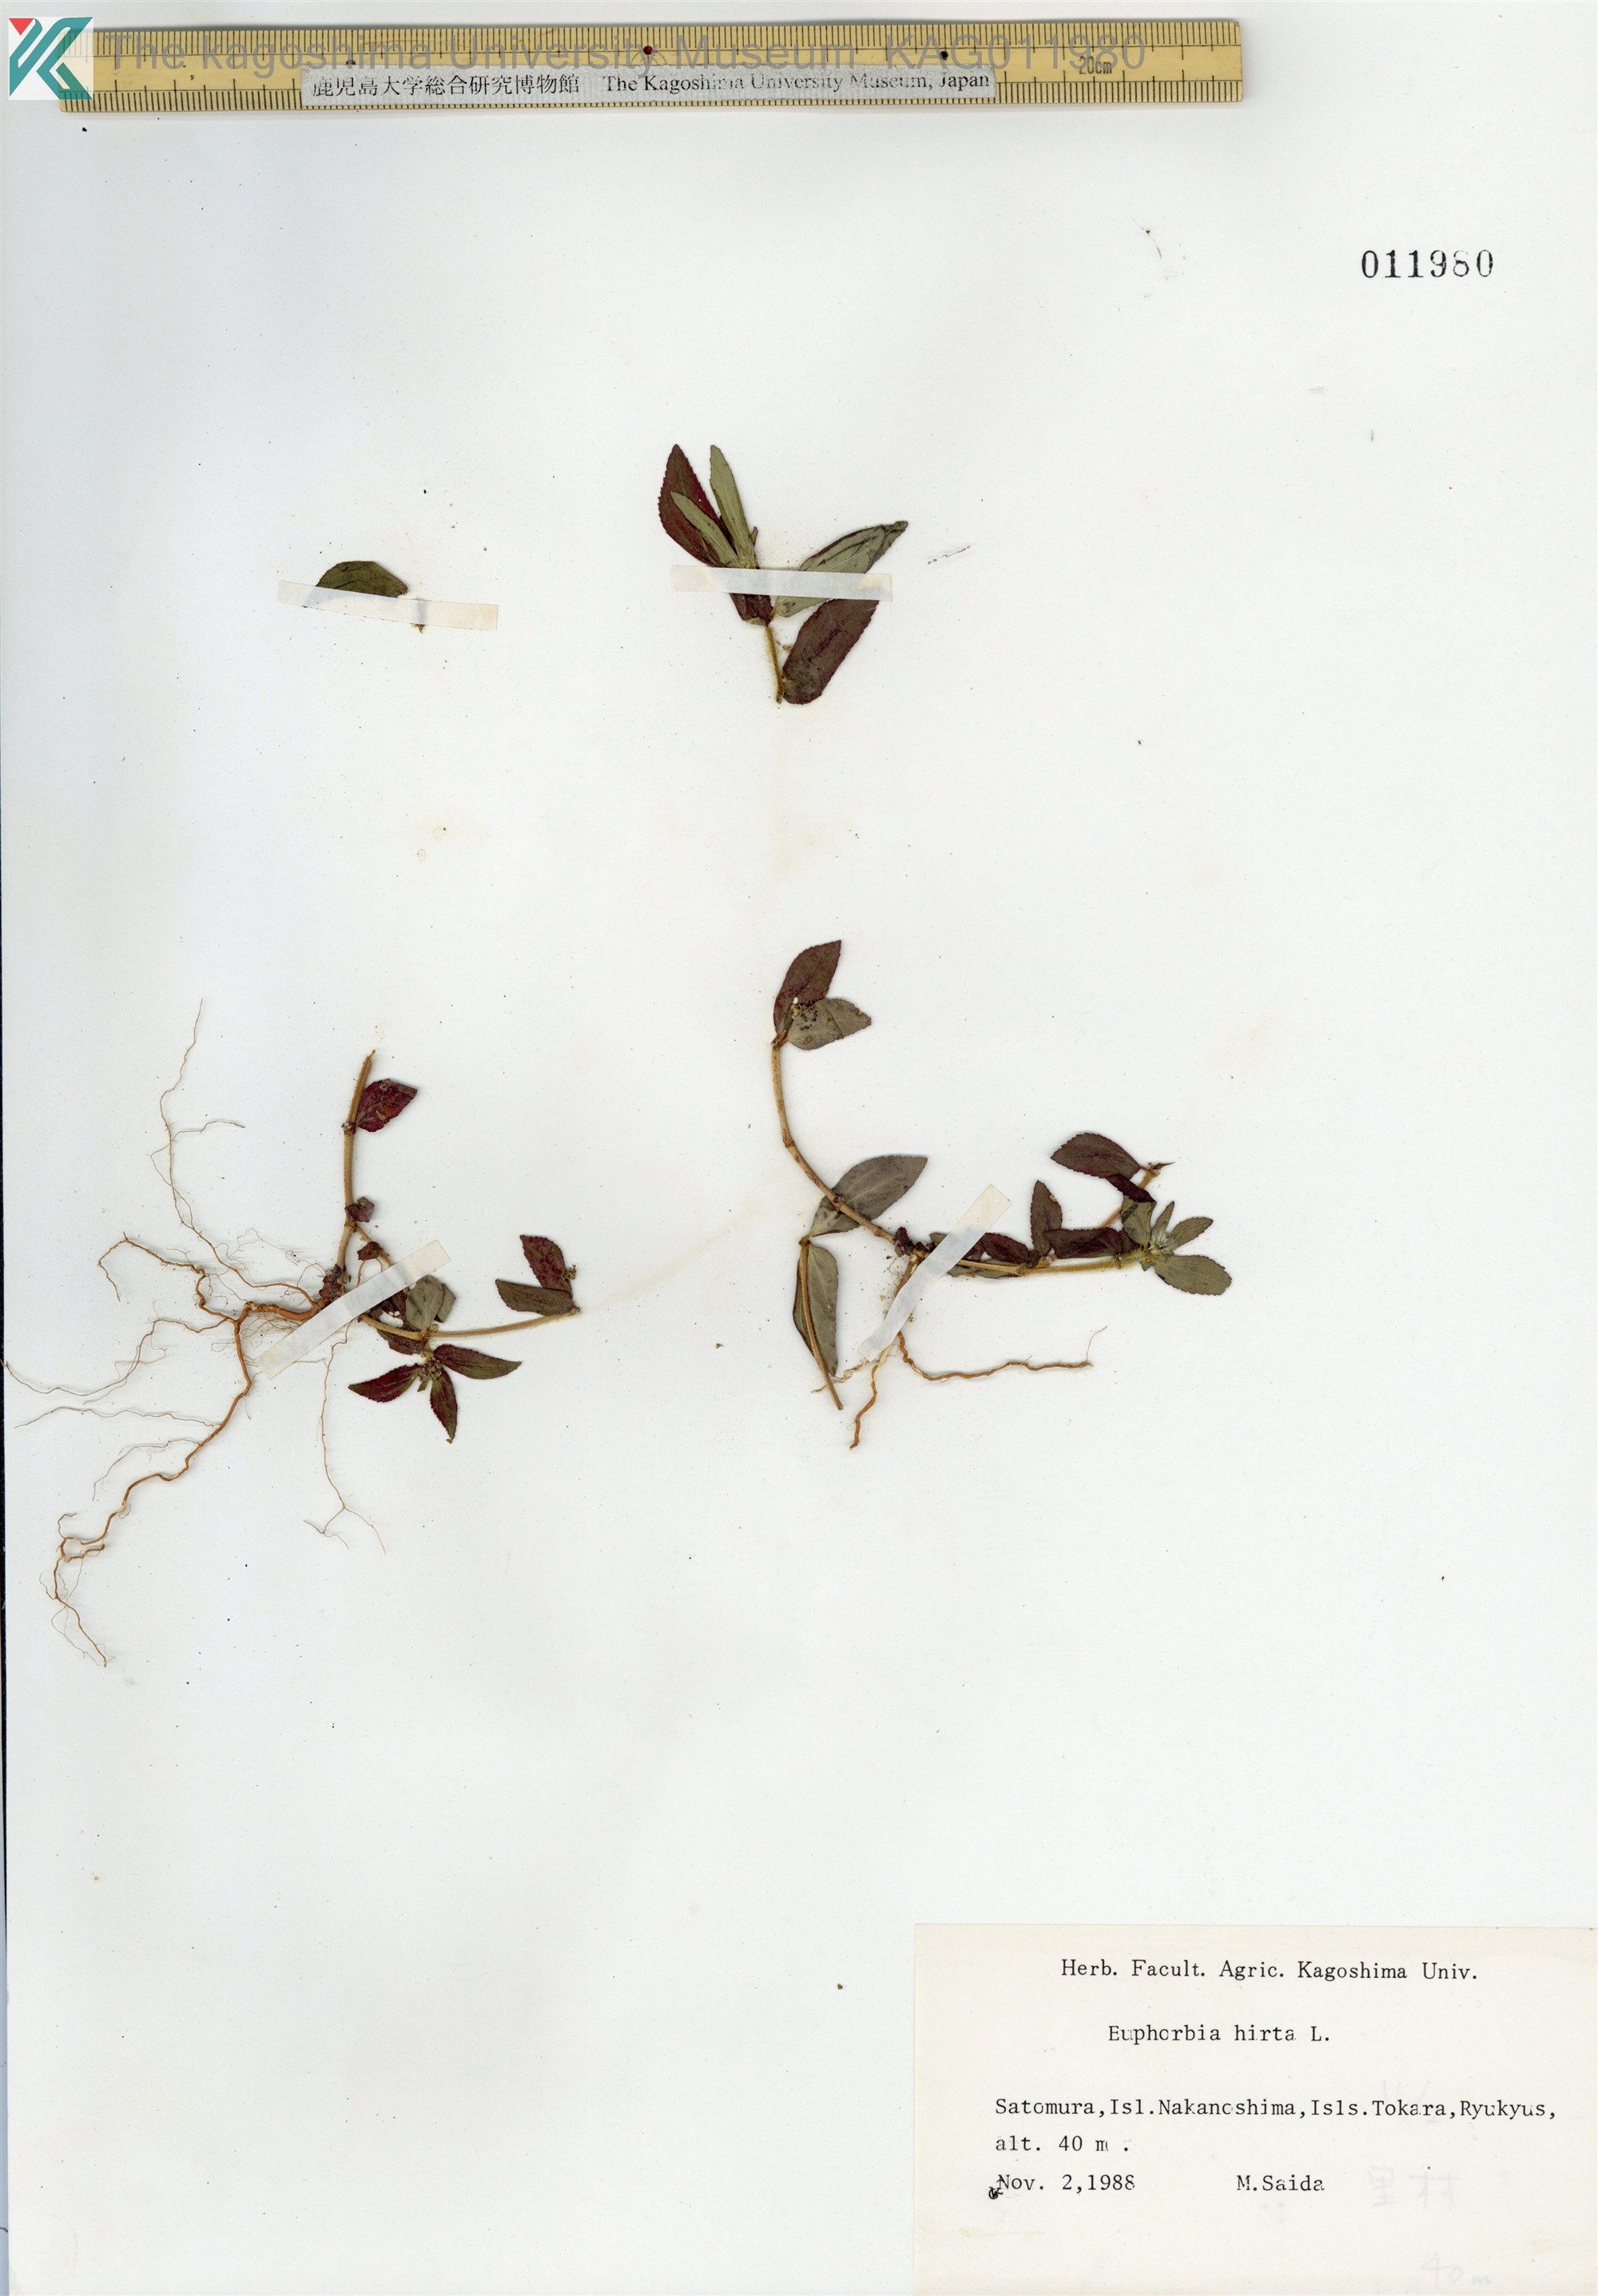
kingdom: Plantae
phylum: Tracheophyta
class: Magnoliopsida
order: Malpighiales
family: Euphorbiaceae
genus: Euphorbia
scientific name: Euphorbia hirta
